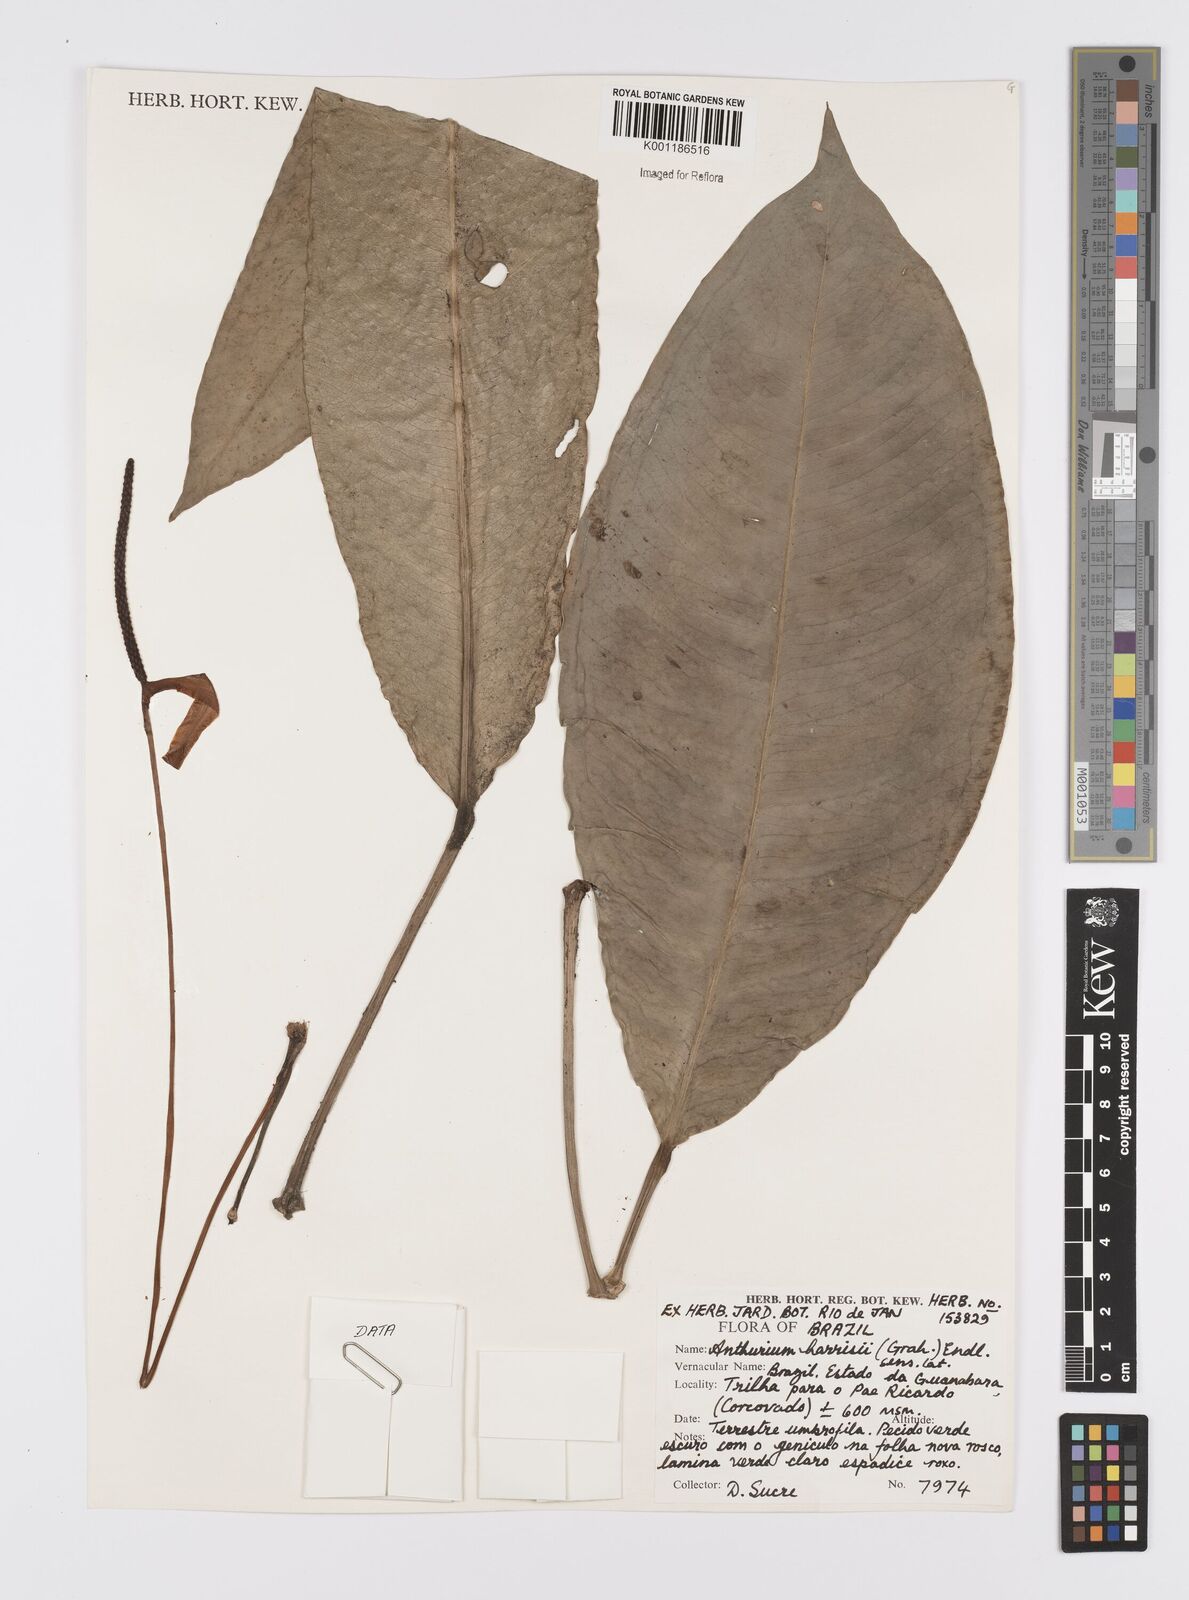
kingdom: Plantae
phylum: Tracheophyta
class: Liliopsida
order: Alismatales
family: Araceae
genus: Anthurium
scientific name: Anthurium harrisii
